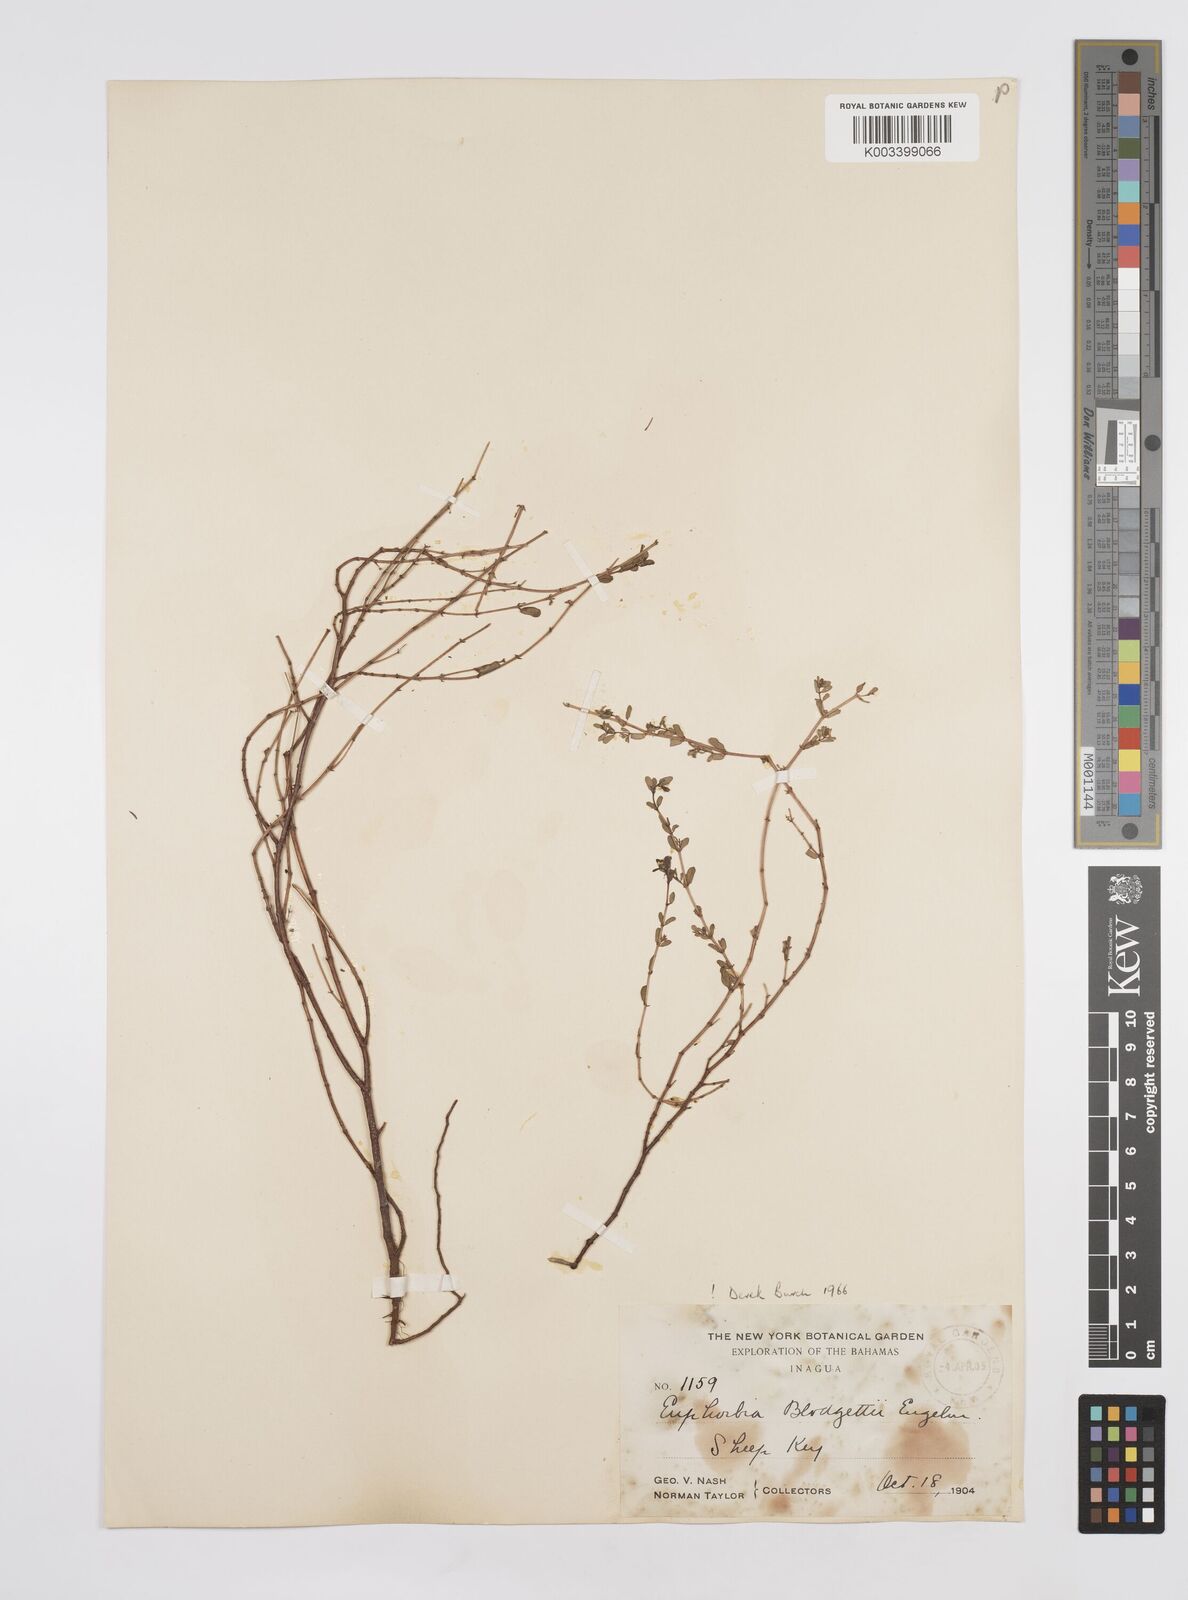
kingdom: Plantae
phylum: Tracheophyta
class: Magnoliopsida
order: Malpighiales
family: Euphorbiaceae
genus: Euphorbia
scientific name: Euphorbia blodgettii
